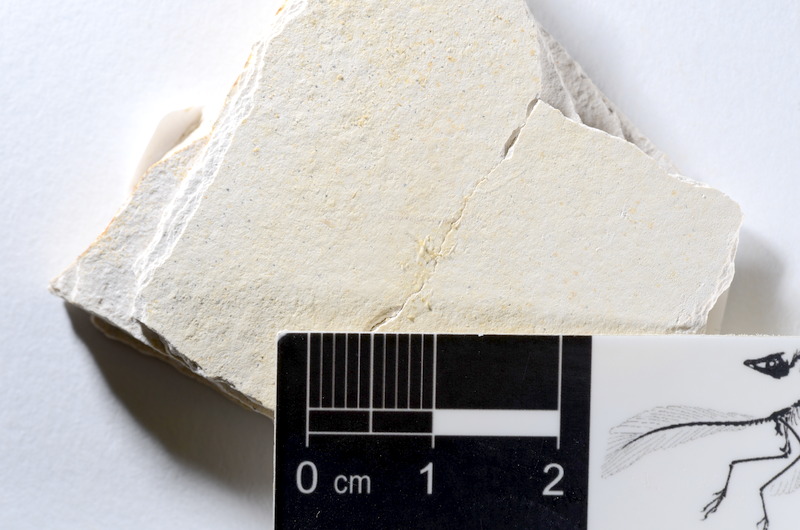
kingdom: Animalia
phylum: Chordata
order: Salmoniformes
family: Orthogonikleithridae
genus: Orthogonikleithrus
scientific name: Orthogonikleithrus hoelli
